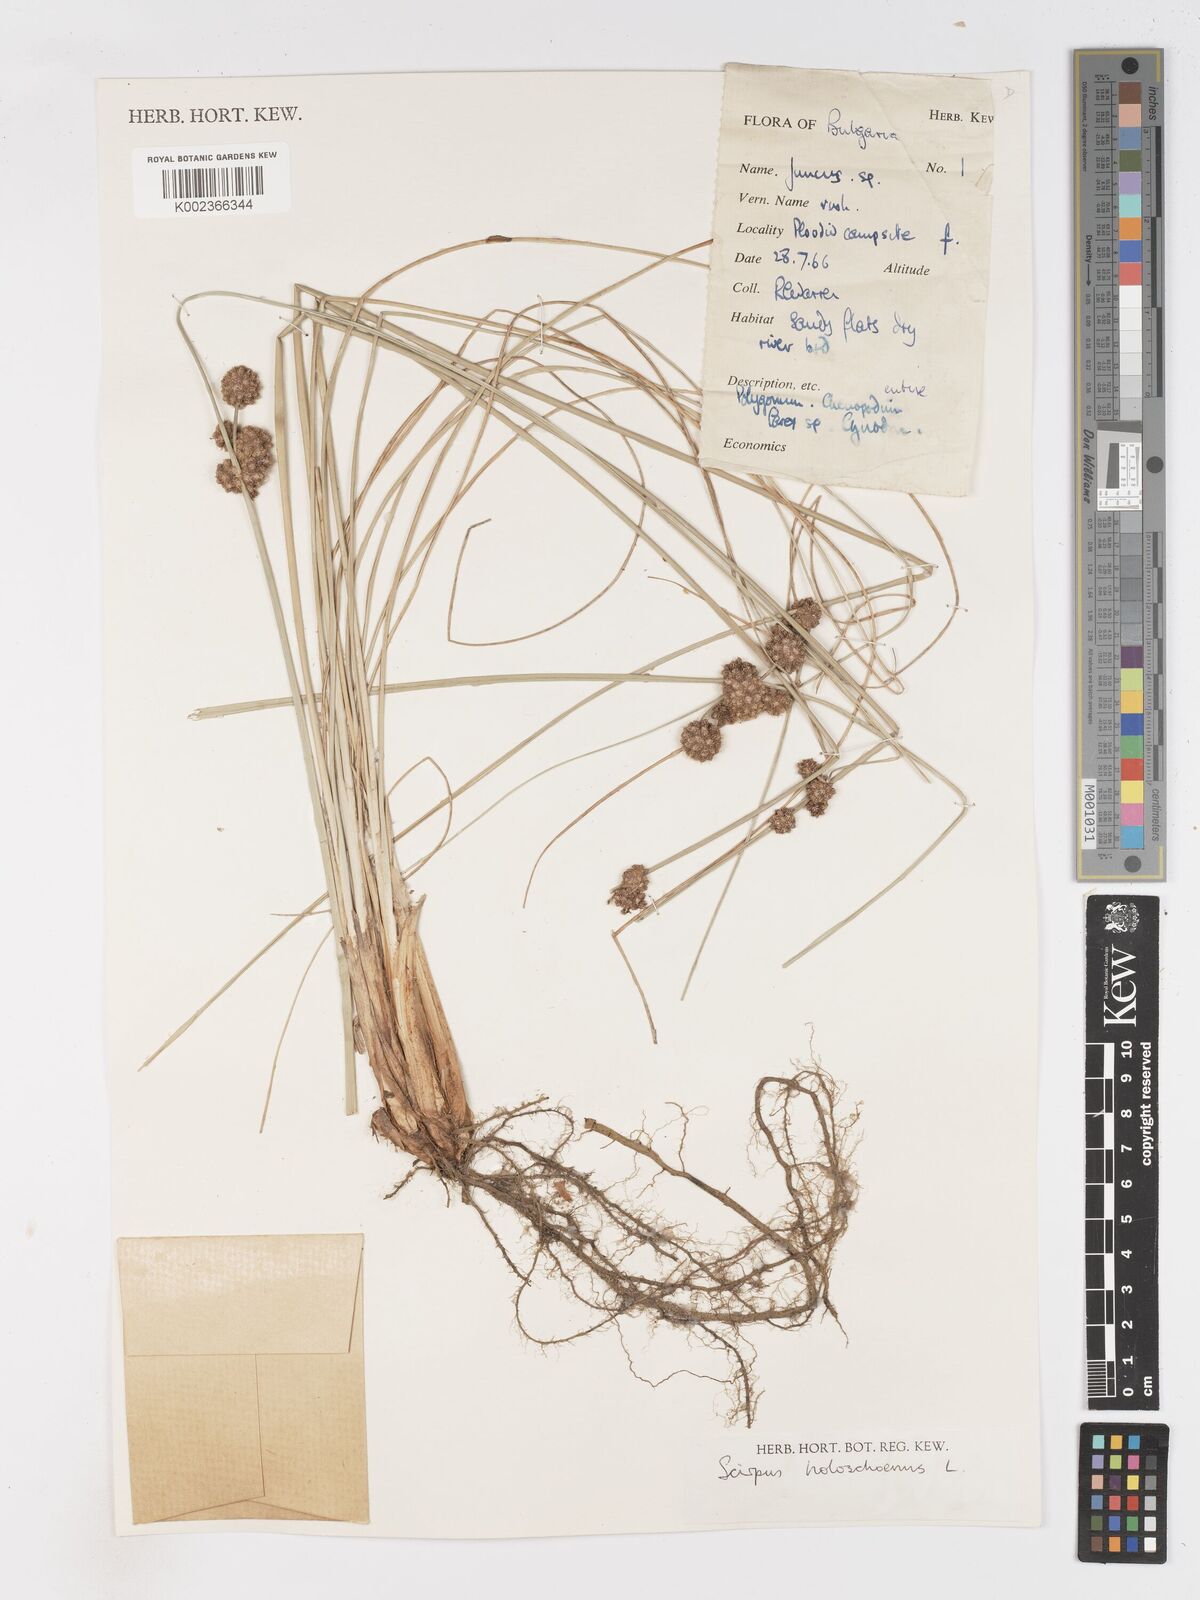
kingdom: Plantae
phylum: Tracheophyta
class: Liliopsida
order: Poales
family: Cyperaceae
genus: Scirpoides
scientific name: Scirpoides holoschoenus
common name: Round-headed club-rush
